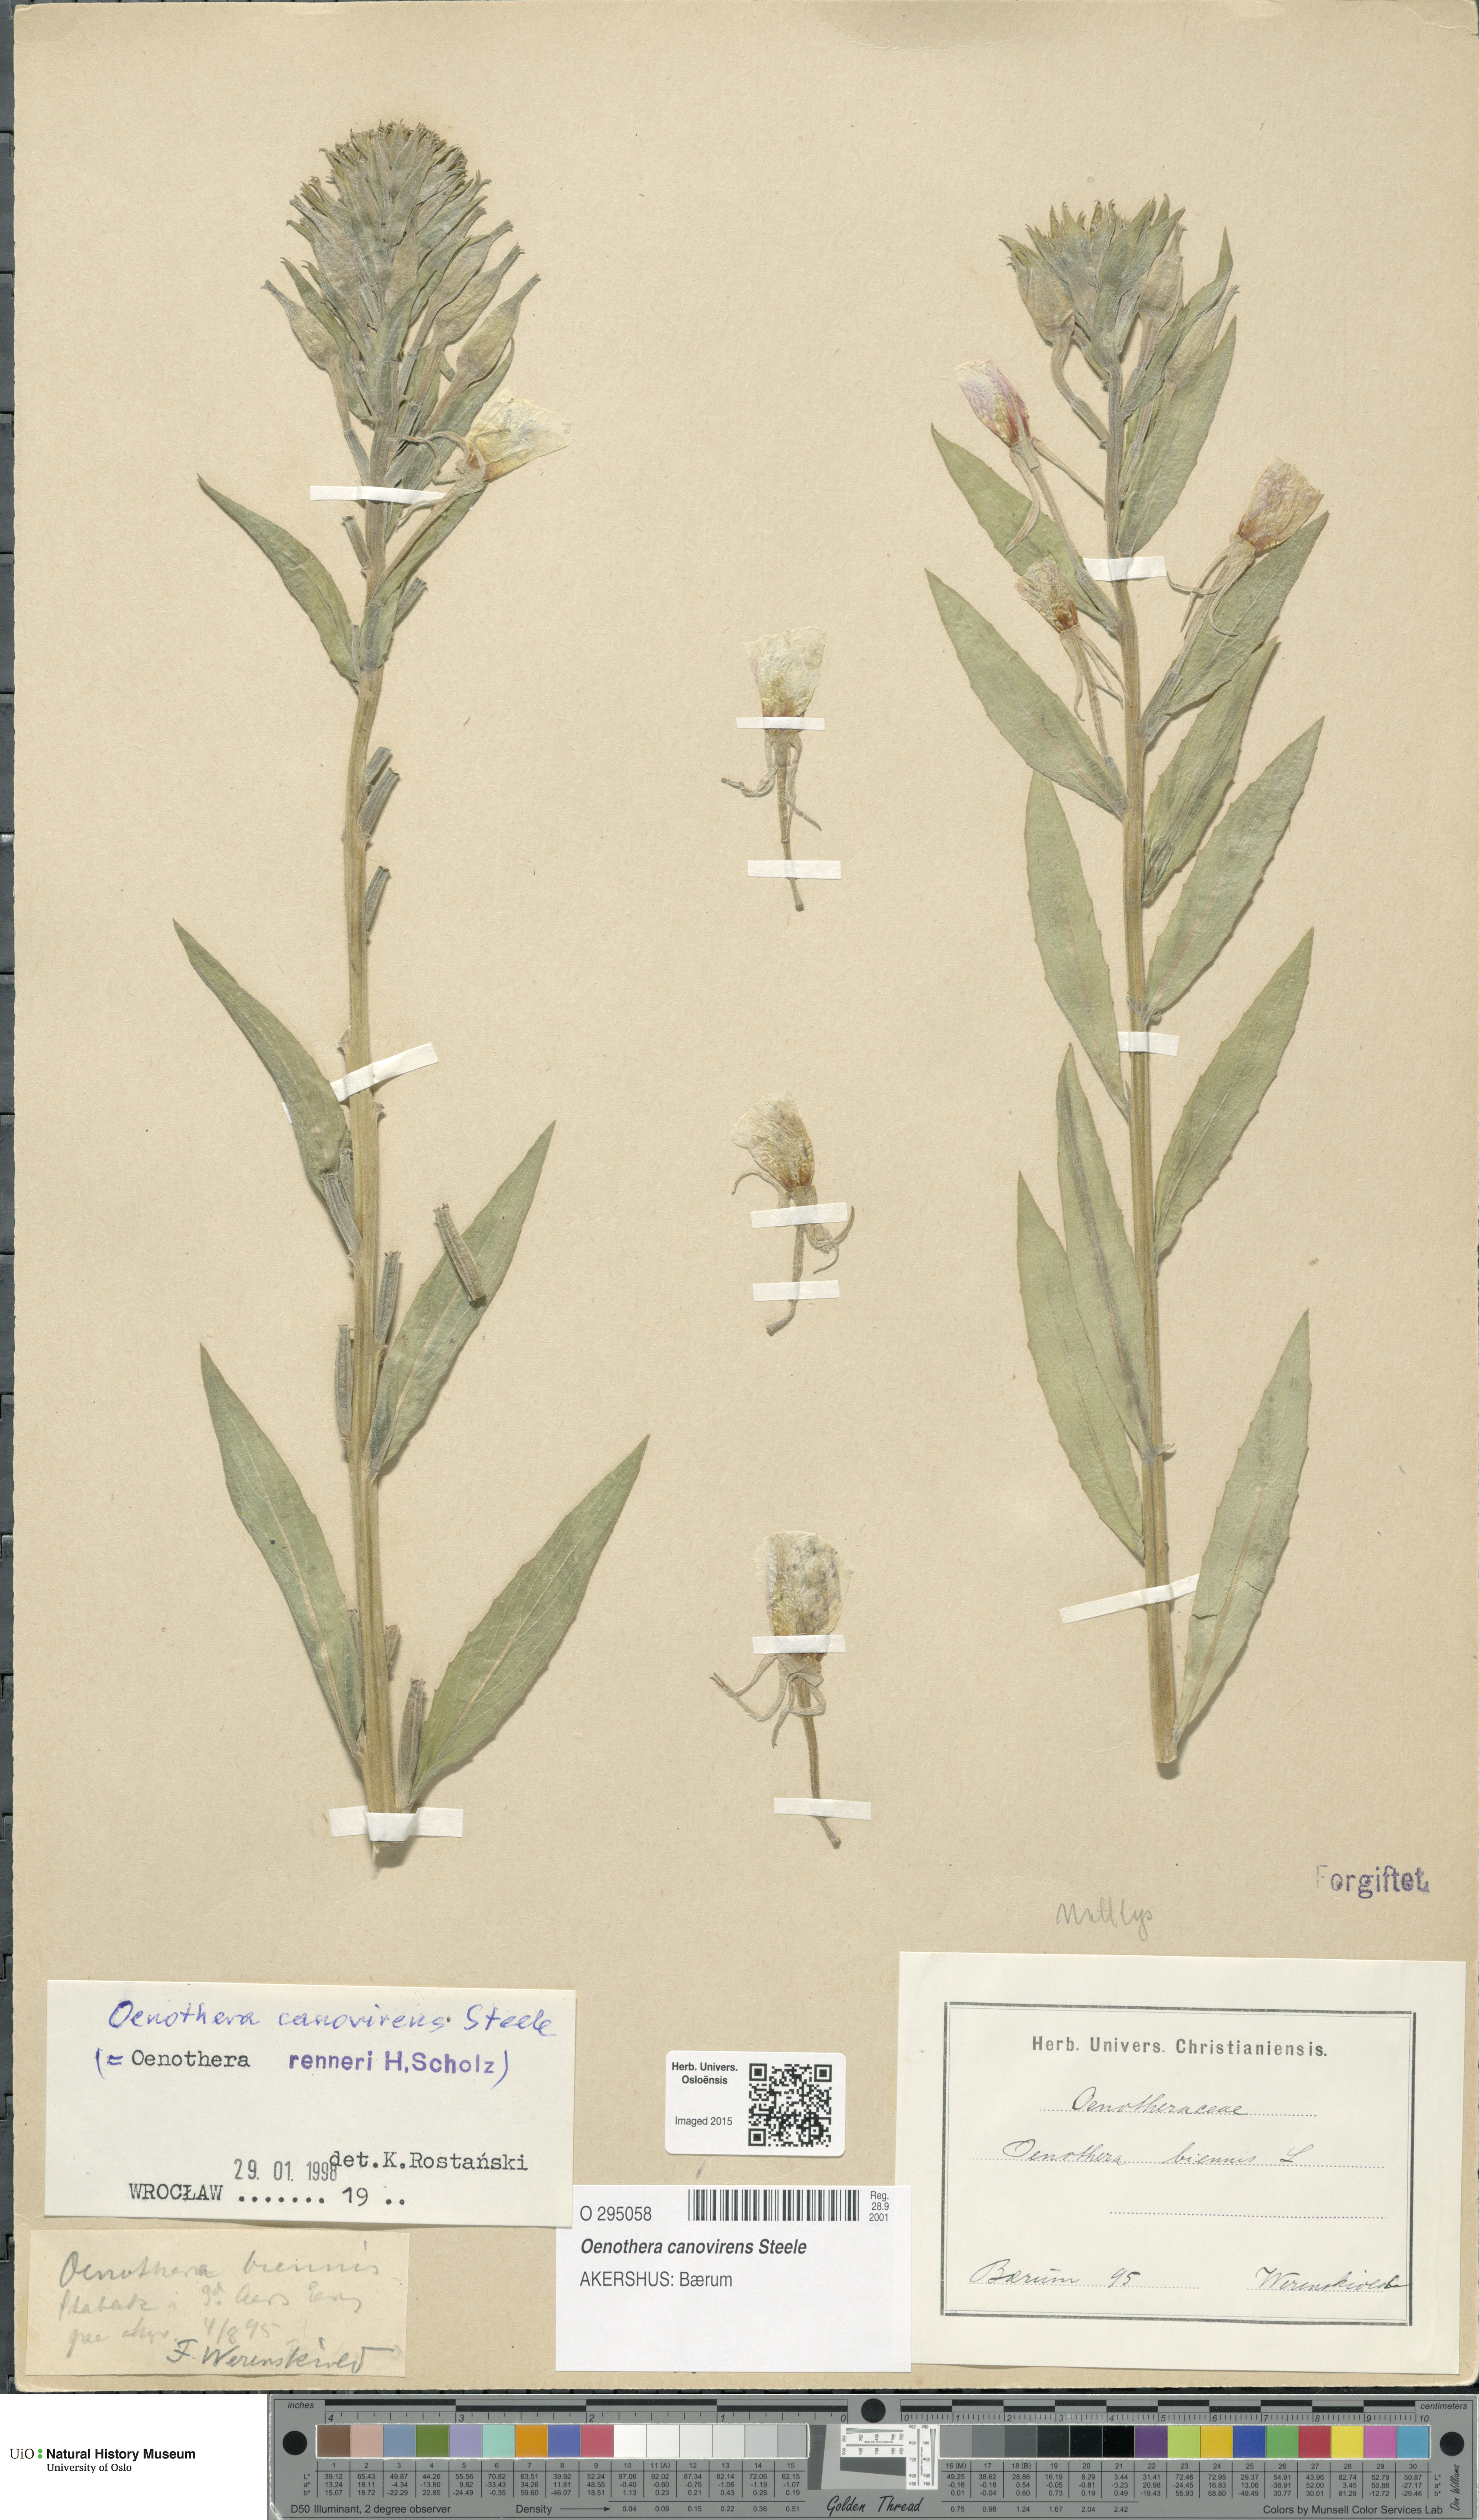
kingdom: Plantae
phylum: Tracheophyta
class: Magnoliopsida
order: Myrtales
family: Onagraceae
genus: Oenothera
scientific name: Oenothera villosa
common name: Hairy evening-primrose
